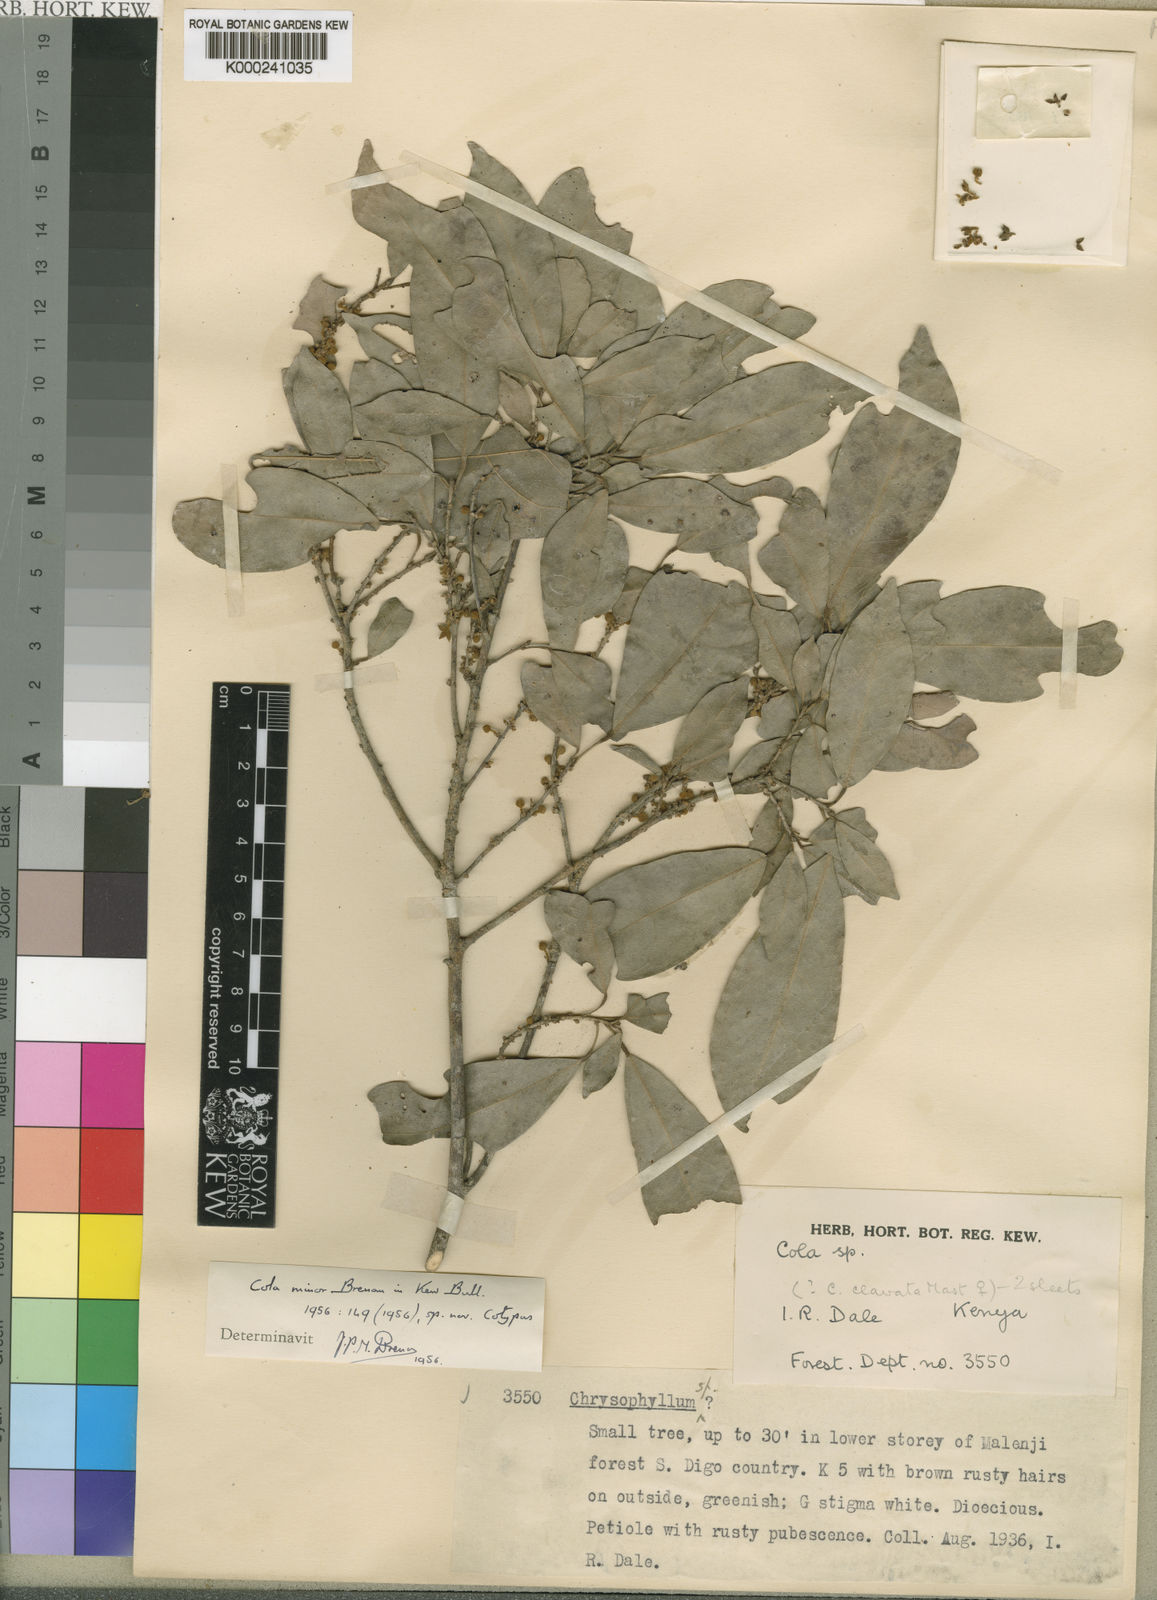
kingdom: Plantae
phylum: Tracheophyta
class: Magnoliopsida
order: Malvales
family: Malvaceae
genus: Cola
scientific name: Cola minor
